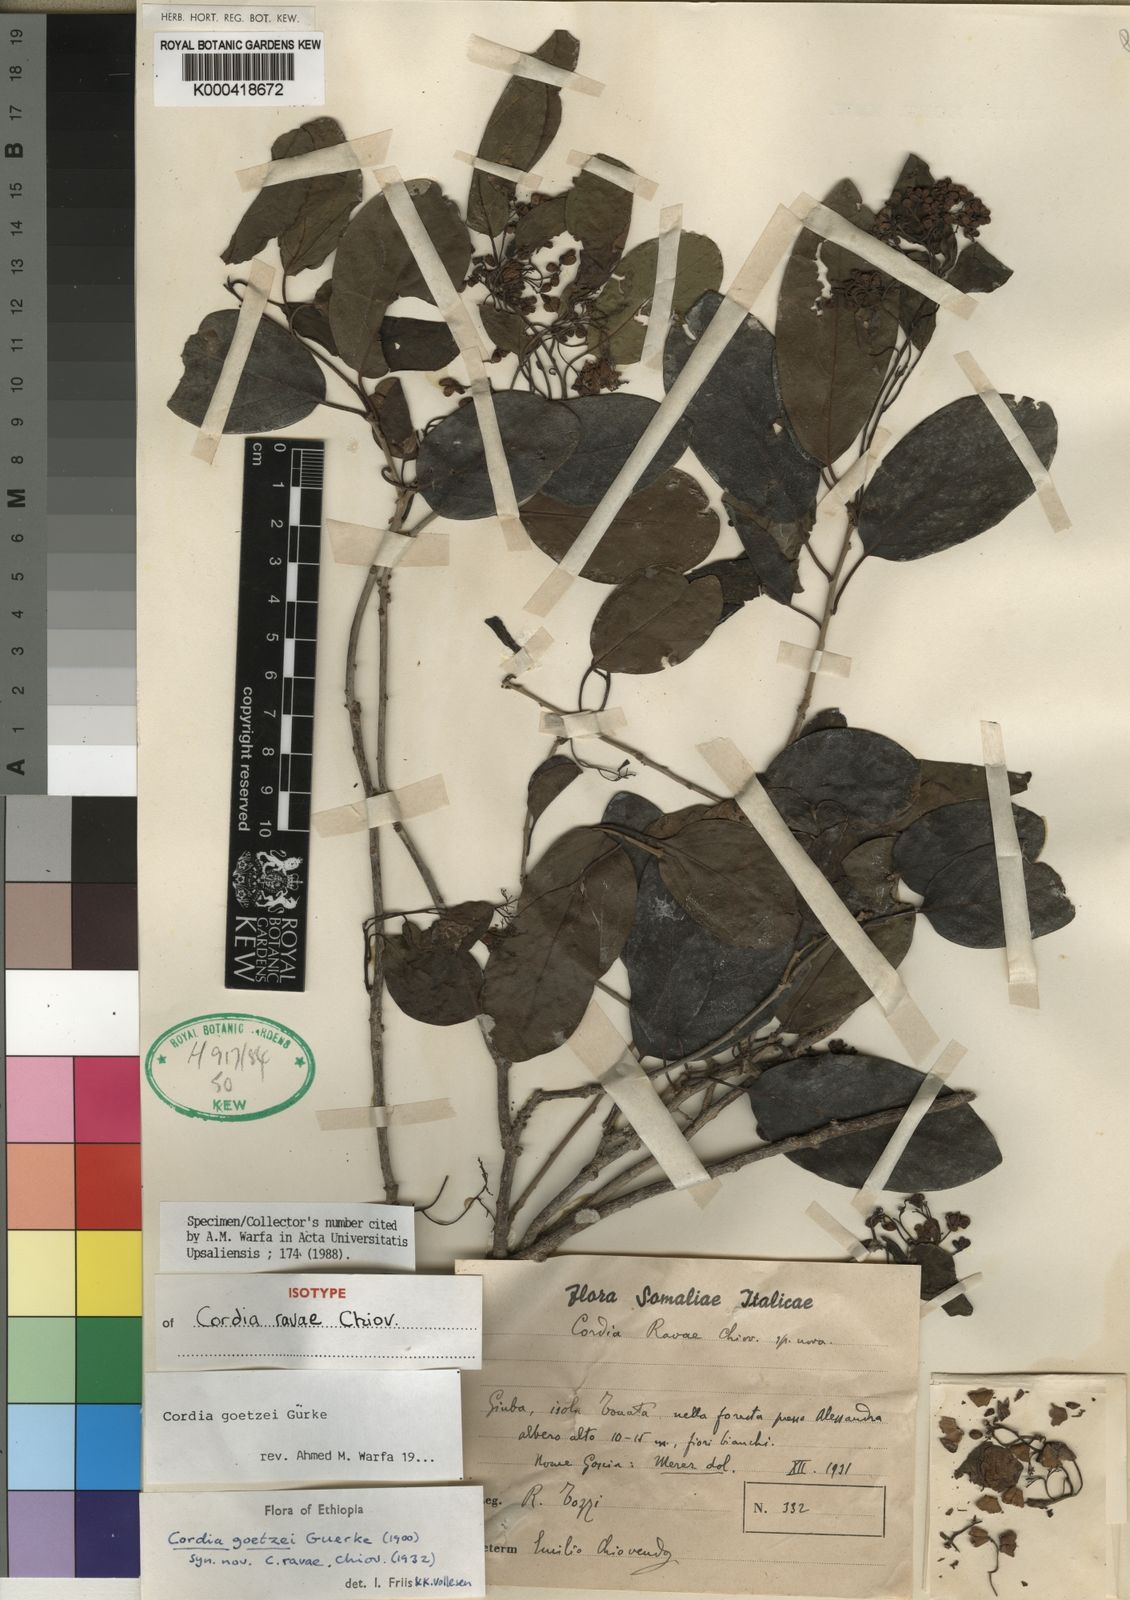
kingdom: Plantae
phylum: Tracheophyta
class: Magnoliopsida
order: Boraginales
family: Cordiaceae
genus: Cordia
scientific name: Cordia
